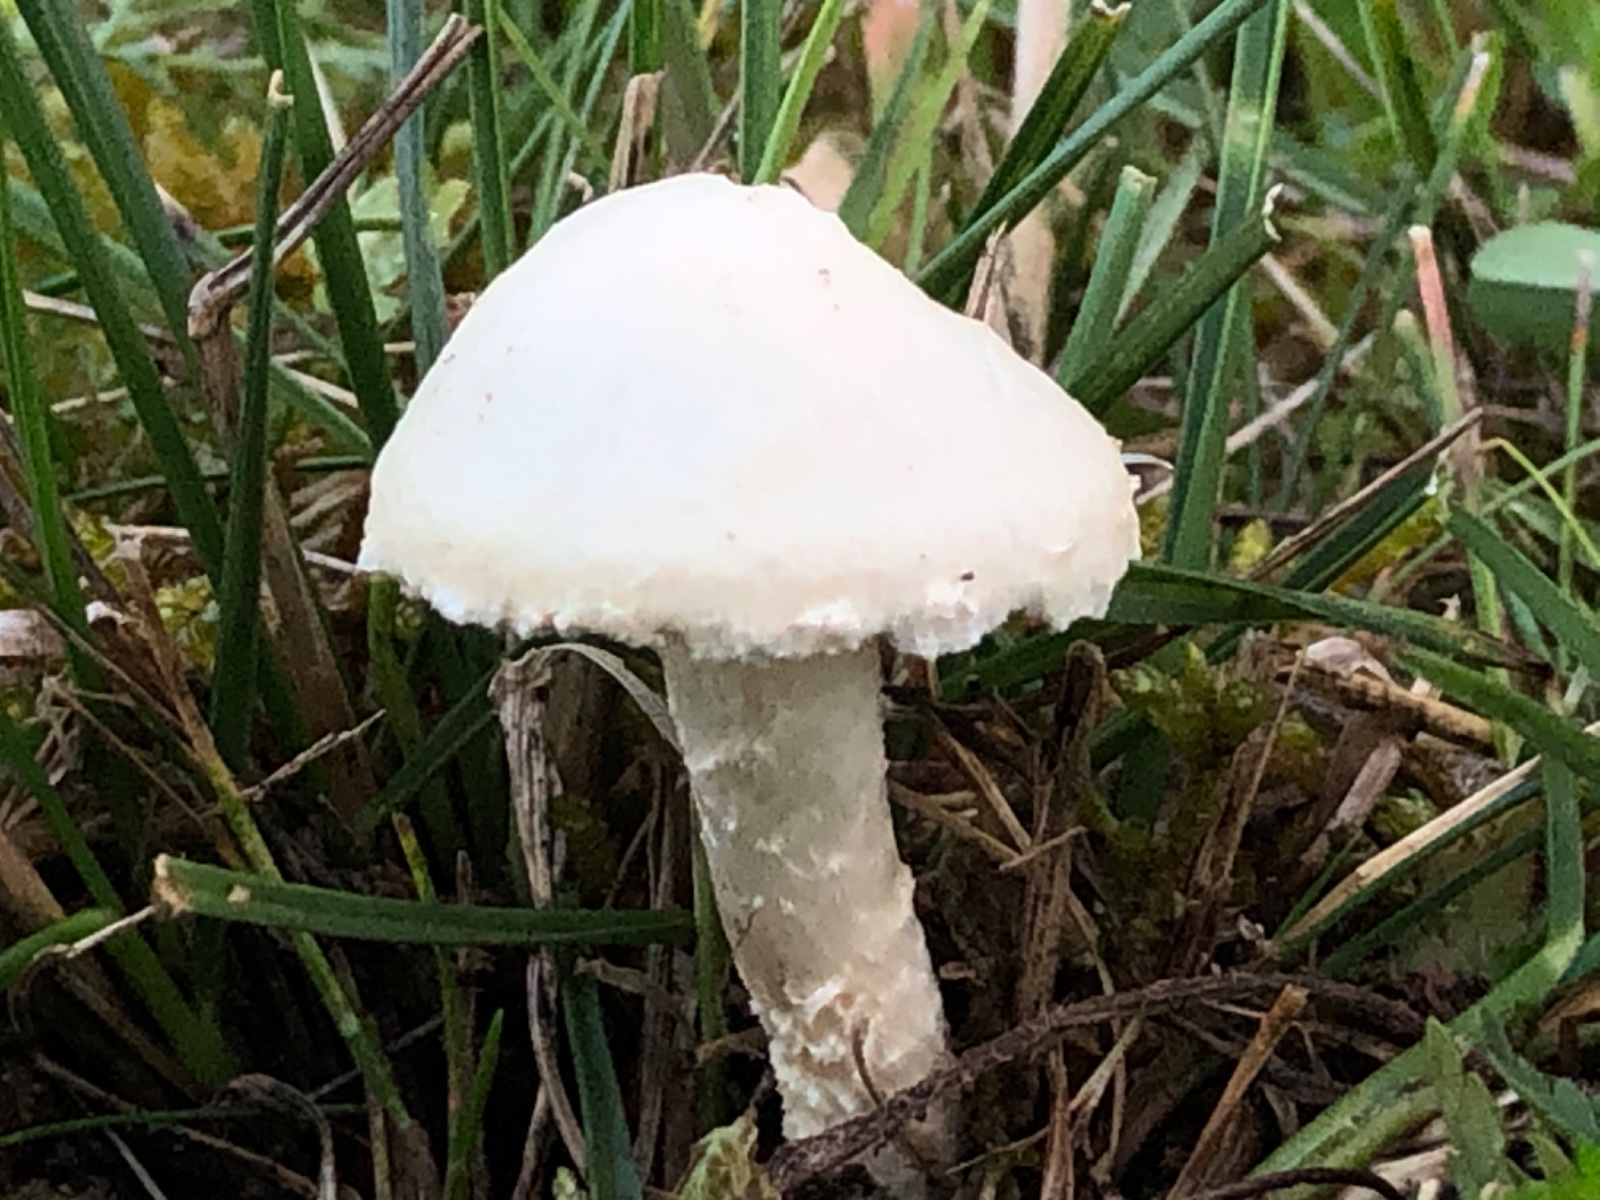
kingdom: Fungi
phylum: Basidiomycota
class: Agaricomycetes
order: Agaricales
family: Strophariaceae
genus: Agrocybe
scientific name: Agrocybe dura
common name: fastkødet agerhat
